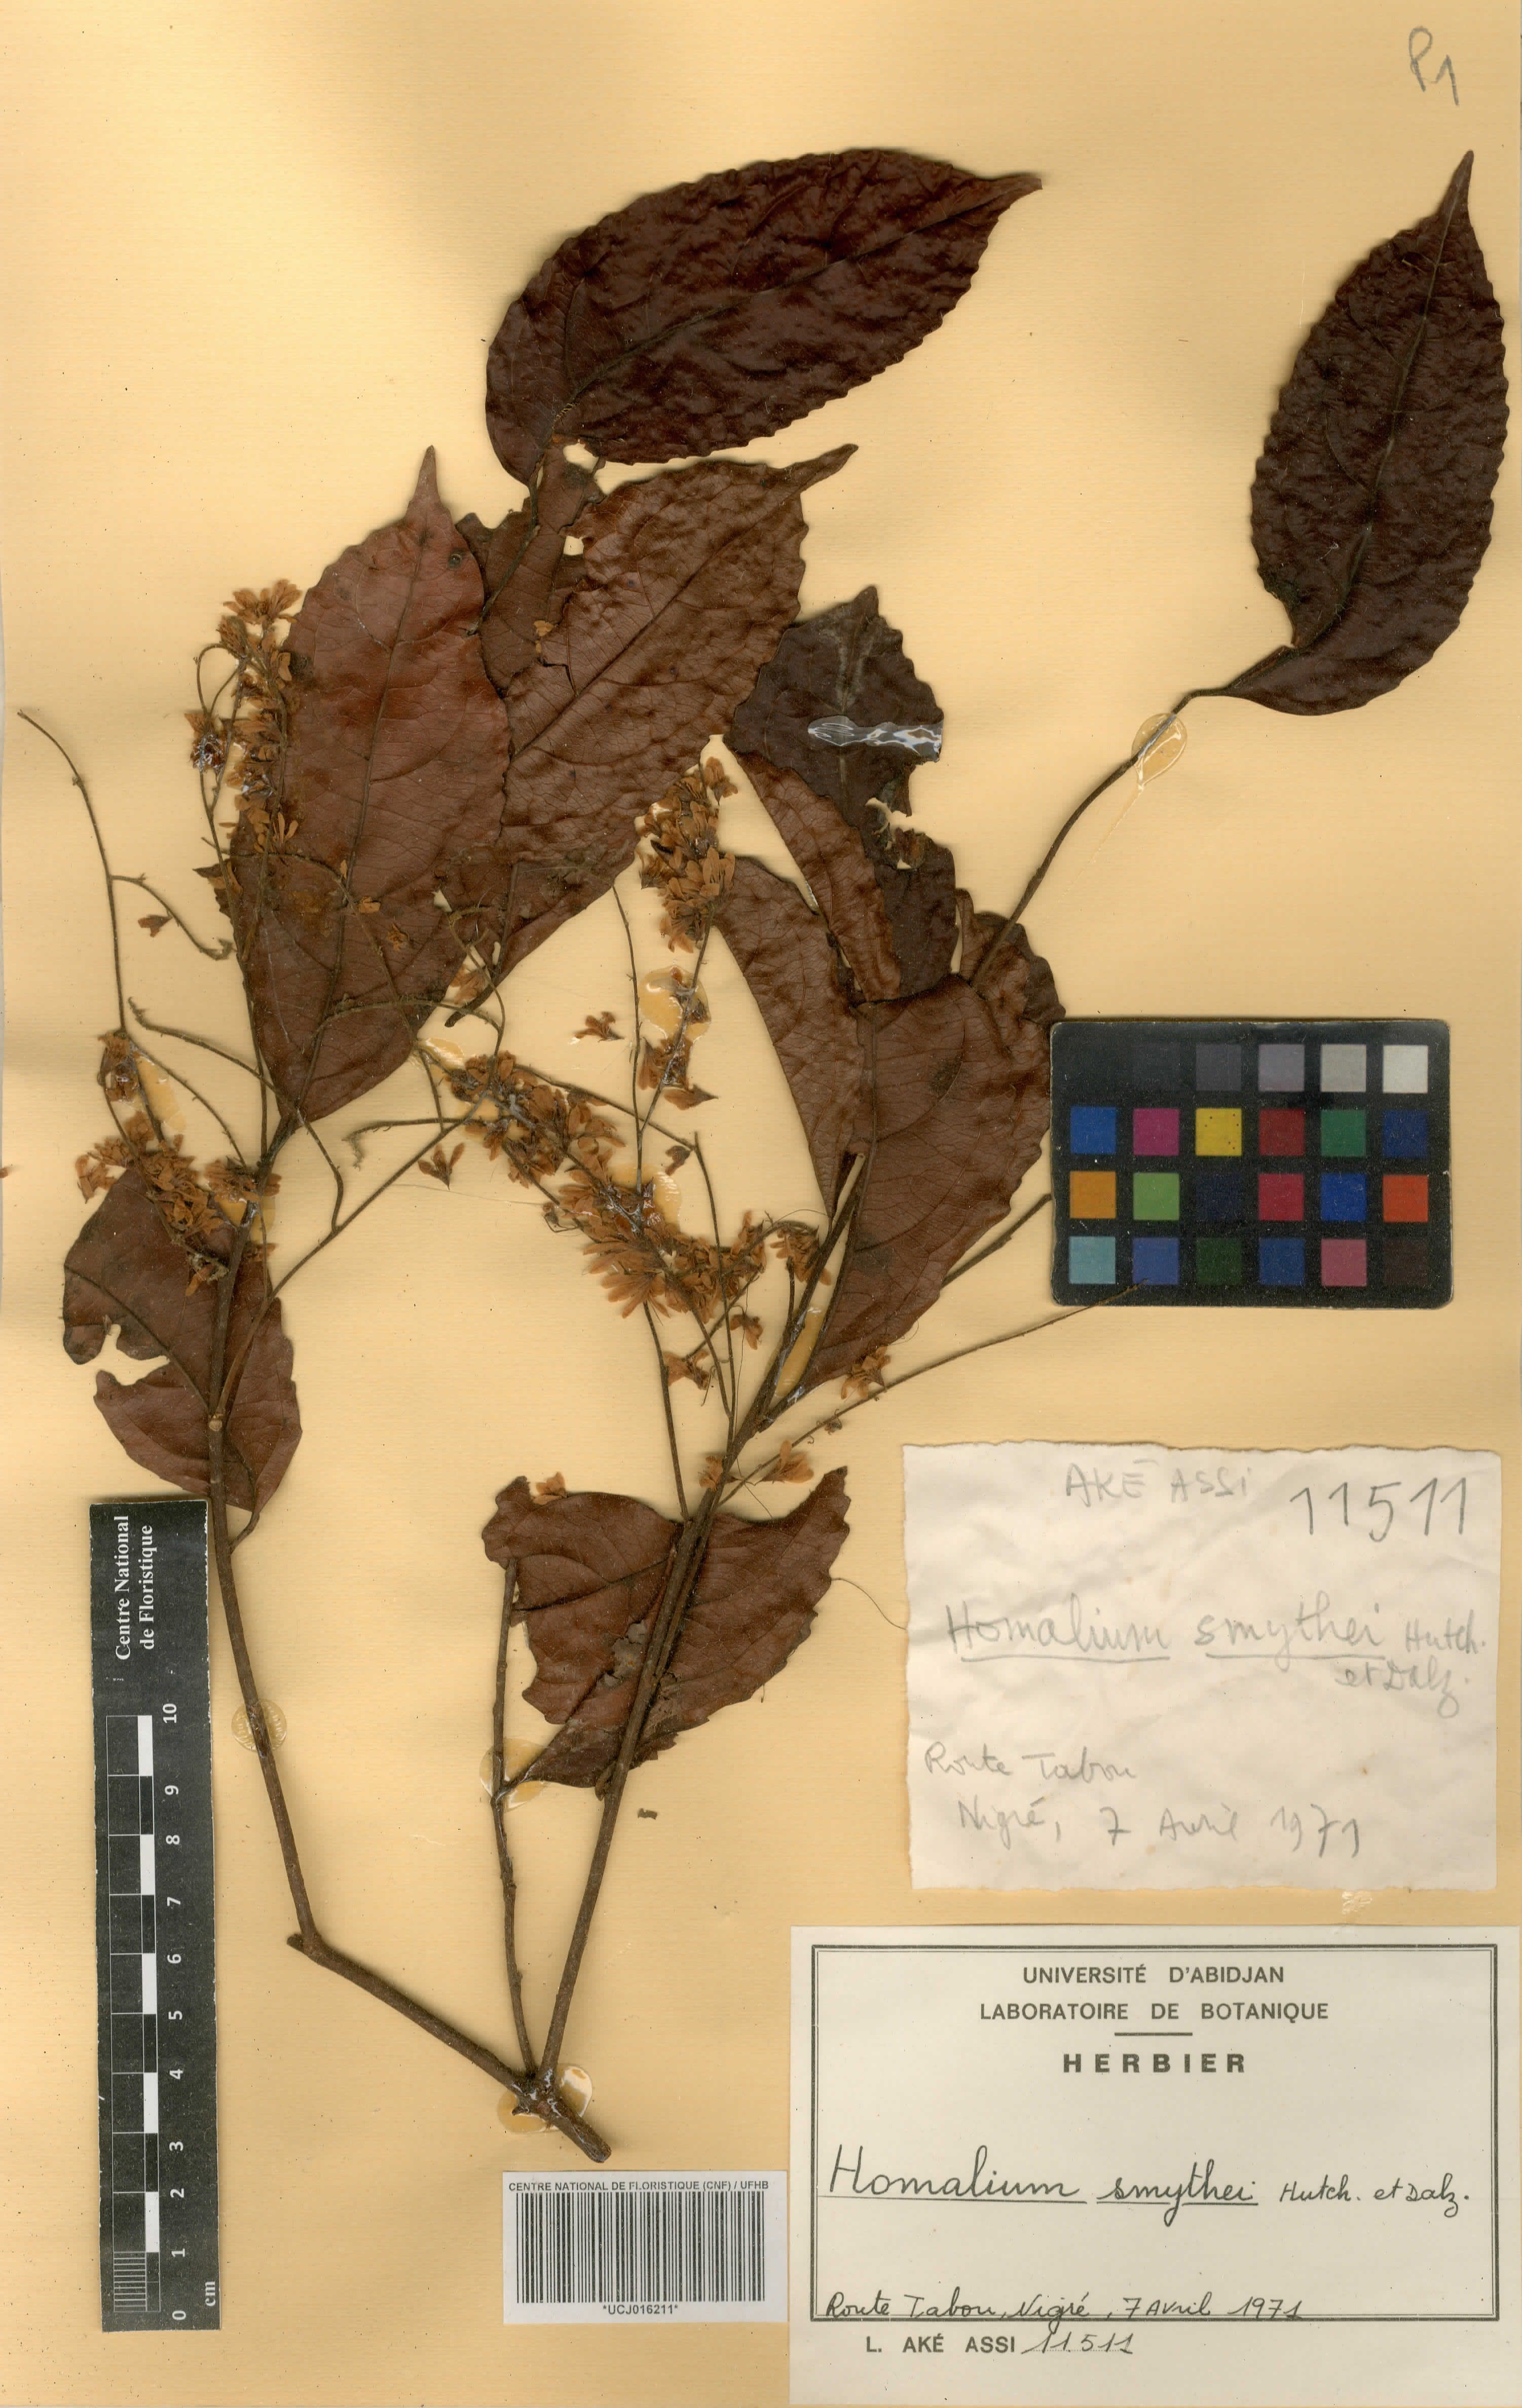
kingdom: Plantae
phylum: Tracheophyta
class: Magnoliopsida
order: Malpighiales
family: Salicaceae
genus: Homalium
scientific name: Homalium smythei
